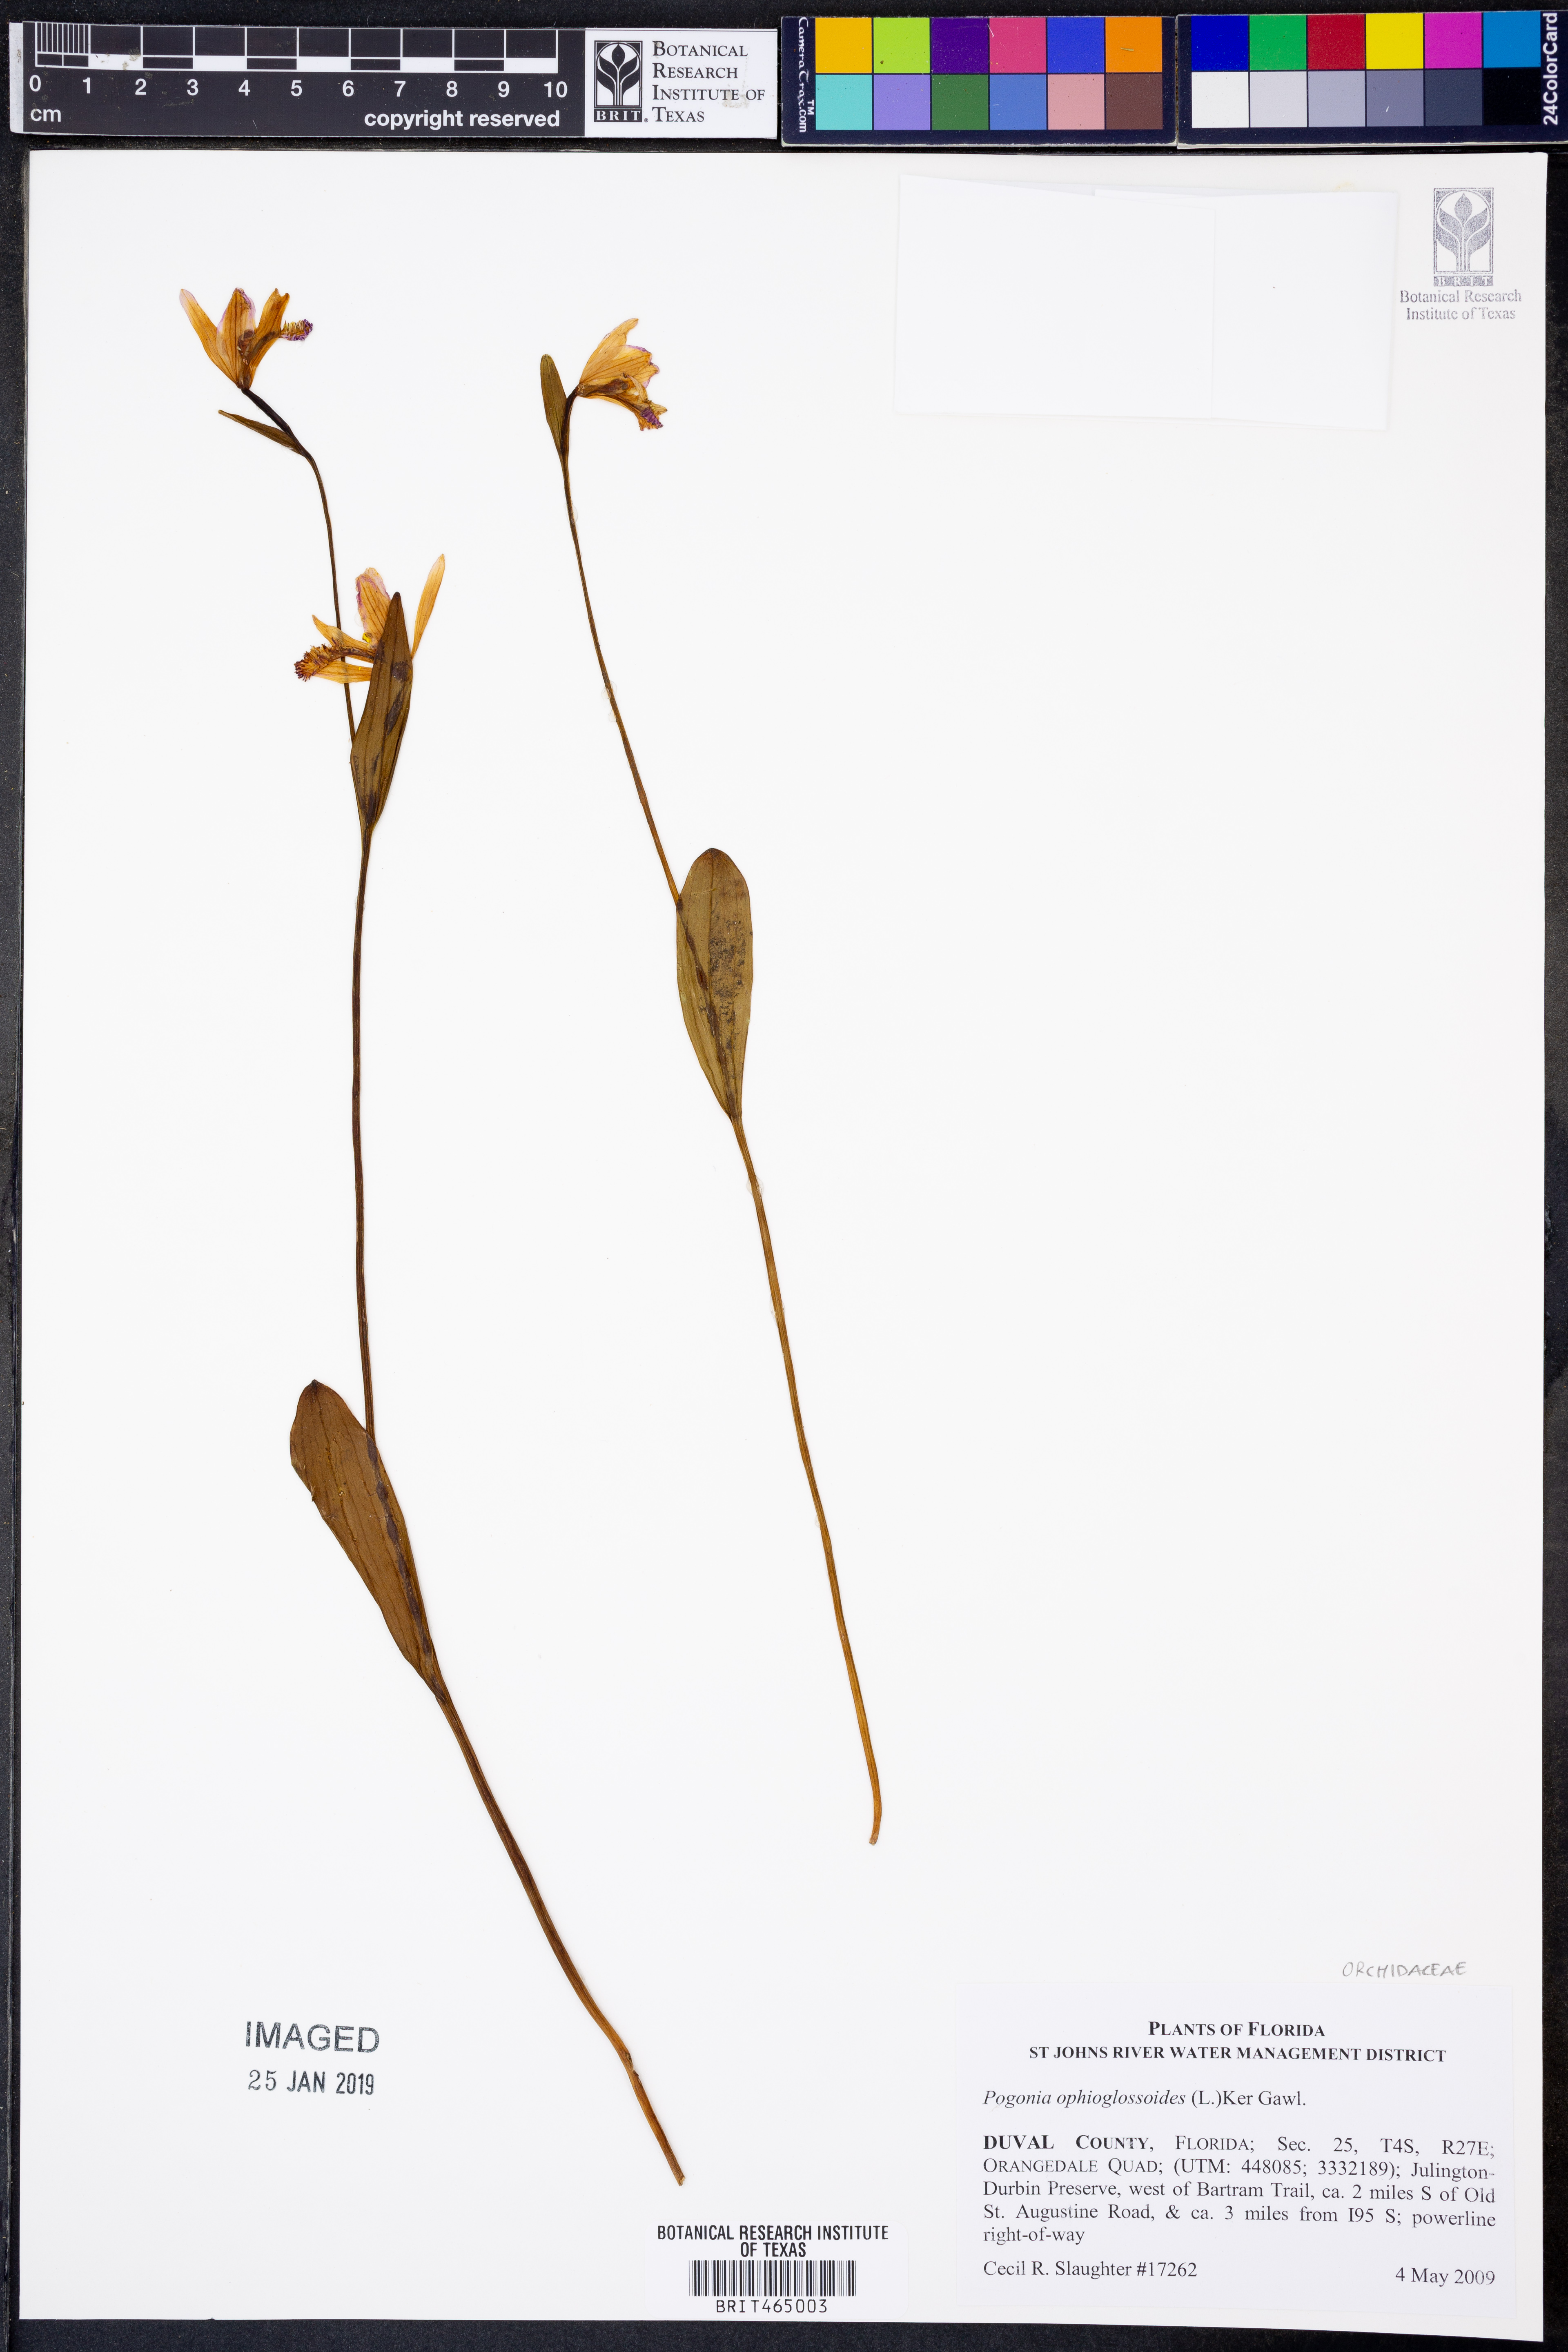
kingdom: Plantae
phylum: Tracheophyta
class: Liliopsida
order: Asparagales
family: Orchidaceae
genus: Pogonia
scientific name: Pogonia ophioglossoides
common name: Rose pogonia
